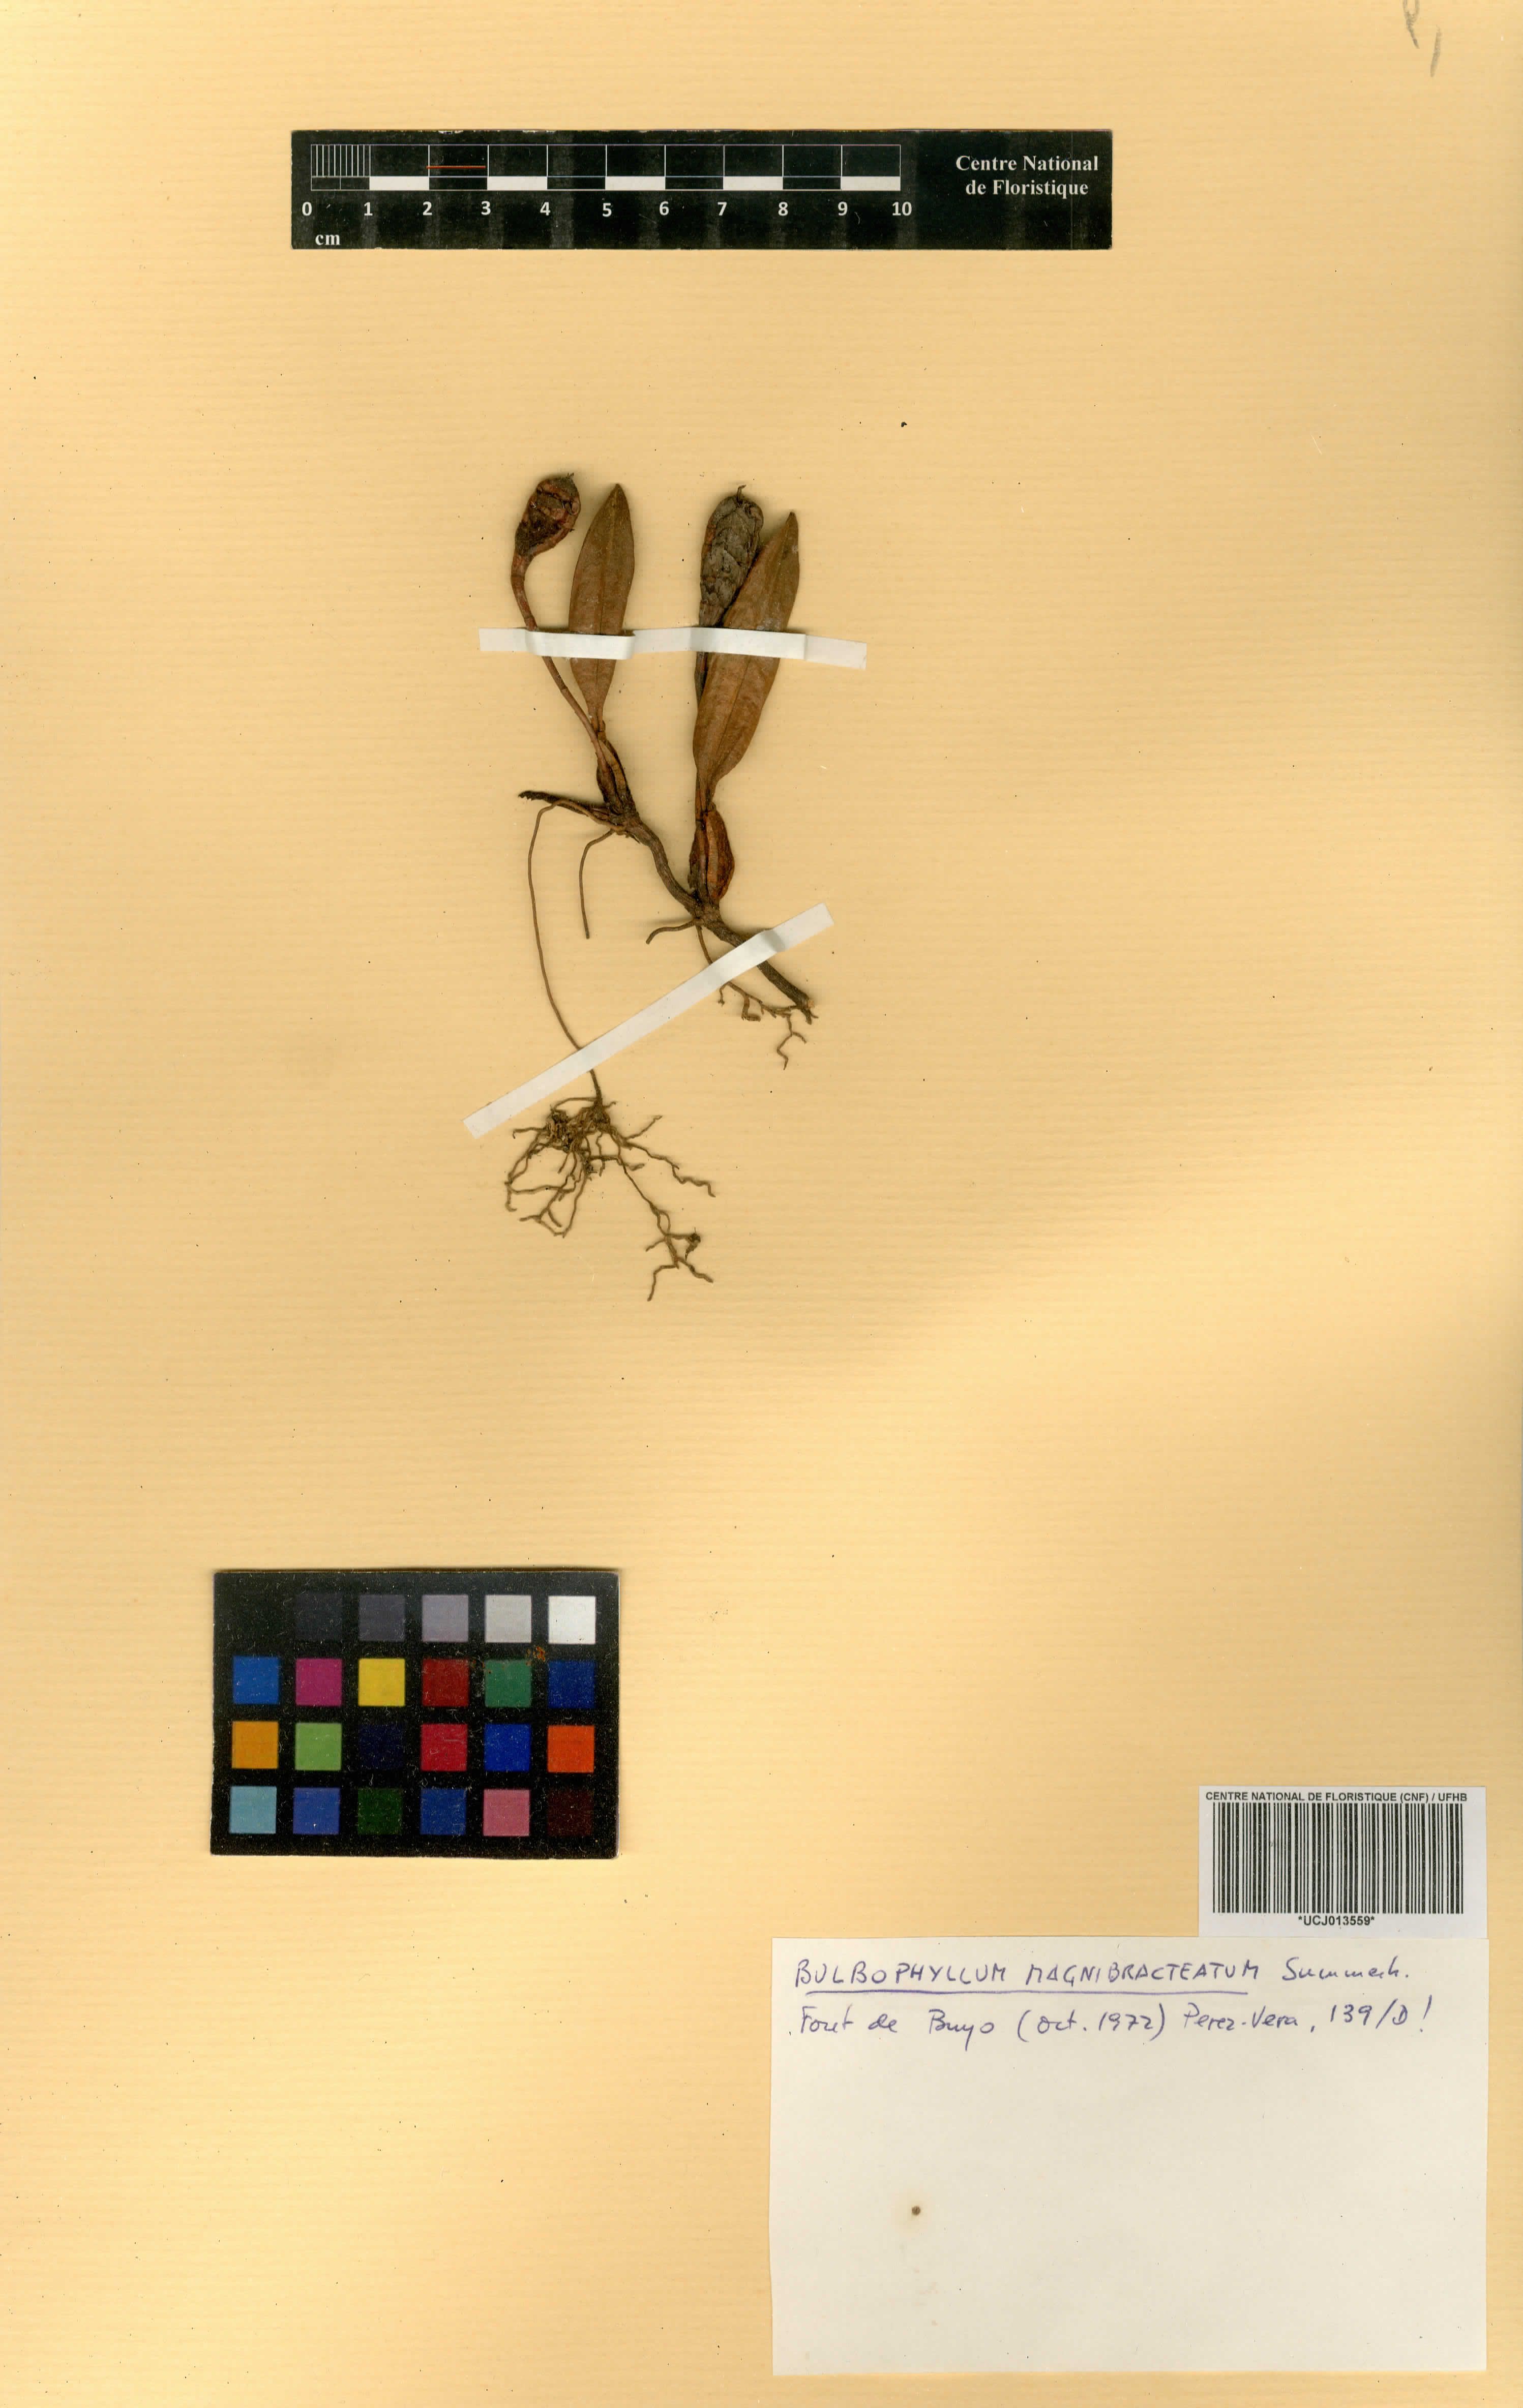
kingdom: Plantae
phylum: Tracheophyta
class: Liliopsida
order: Asparagales
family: Orchidaceae
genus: Bulbophyllum
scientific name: Bulbophyllum magnibracteatum
